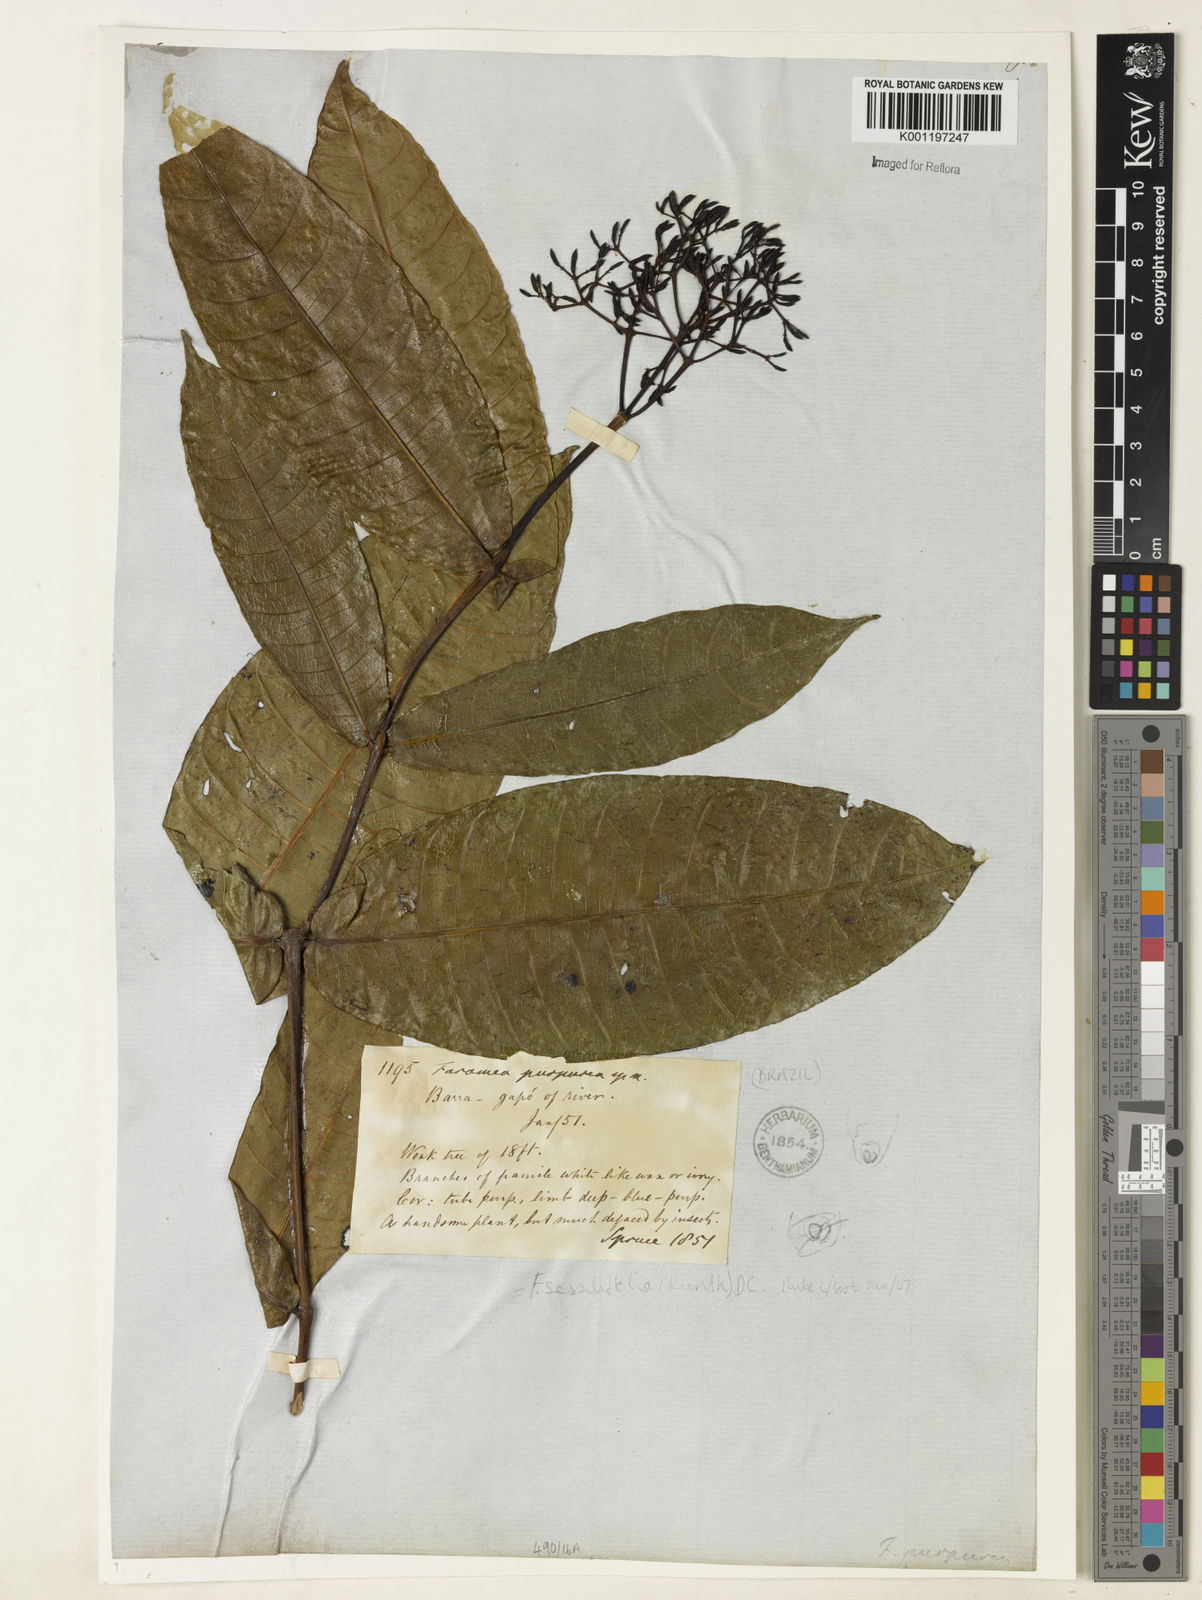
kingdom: Plantae
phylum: Tracheophyta
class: Magnoliopsida
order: Gentianales
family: Rubiaceae
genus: Faramea
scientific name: Faramea sessilifolia
